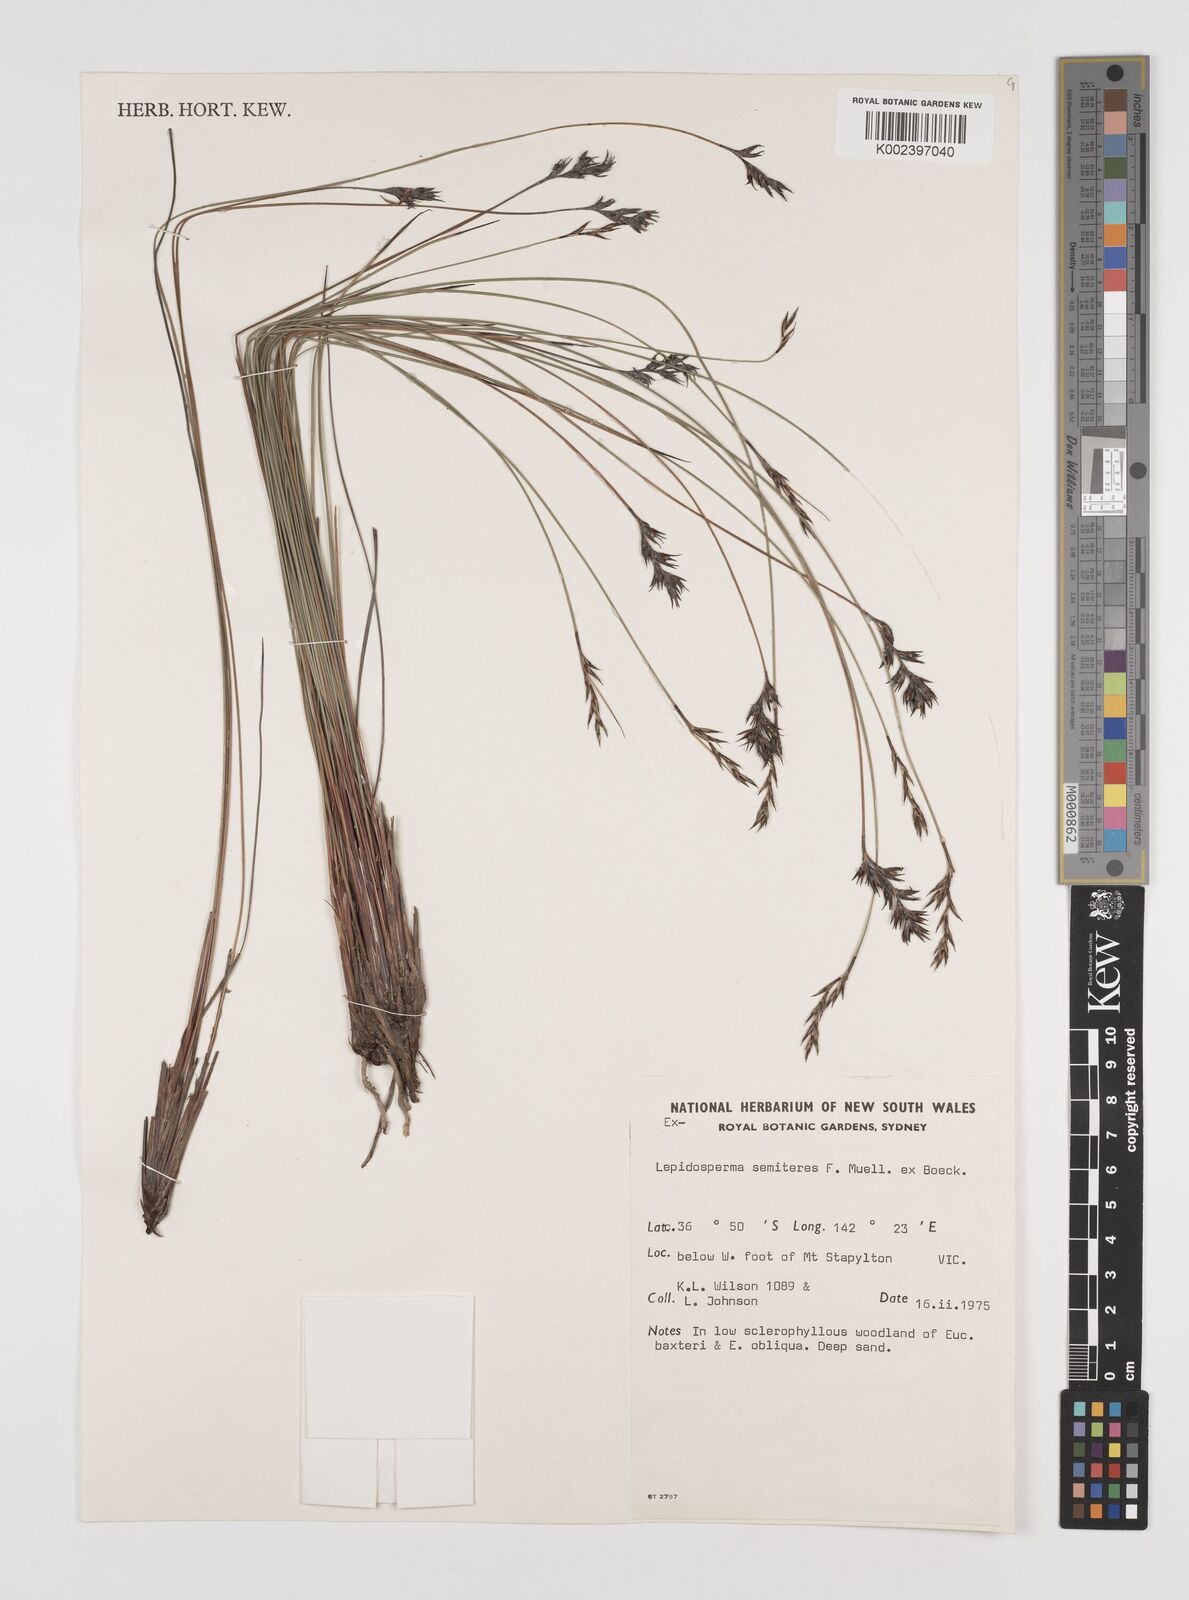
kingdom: Plantae
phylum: Tracheophyta
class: Liliopsida
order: Poales
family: Cyperaceae
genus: Lepidosperma
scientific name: Lepidosperma semiteres
